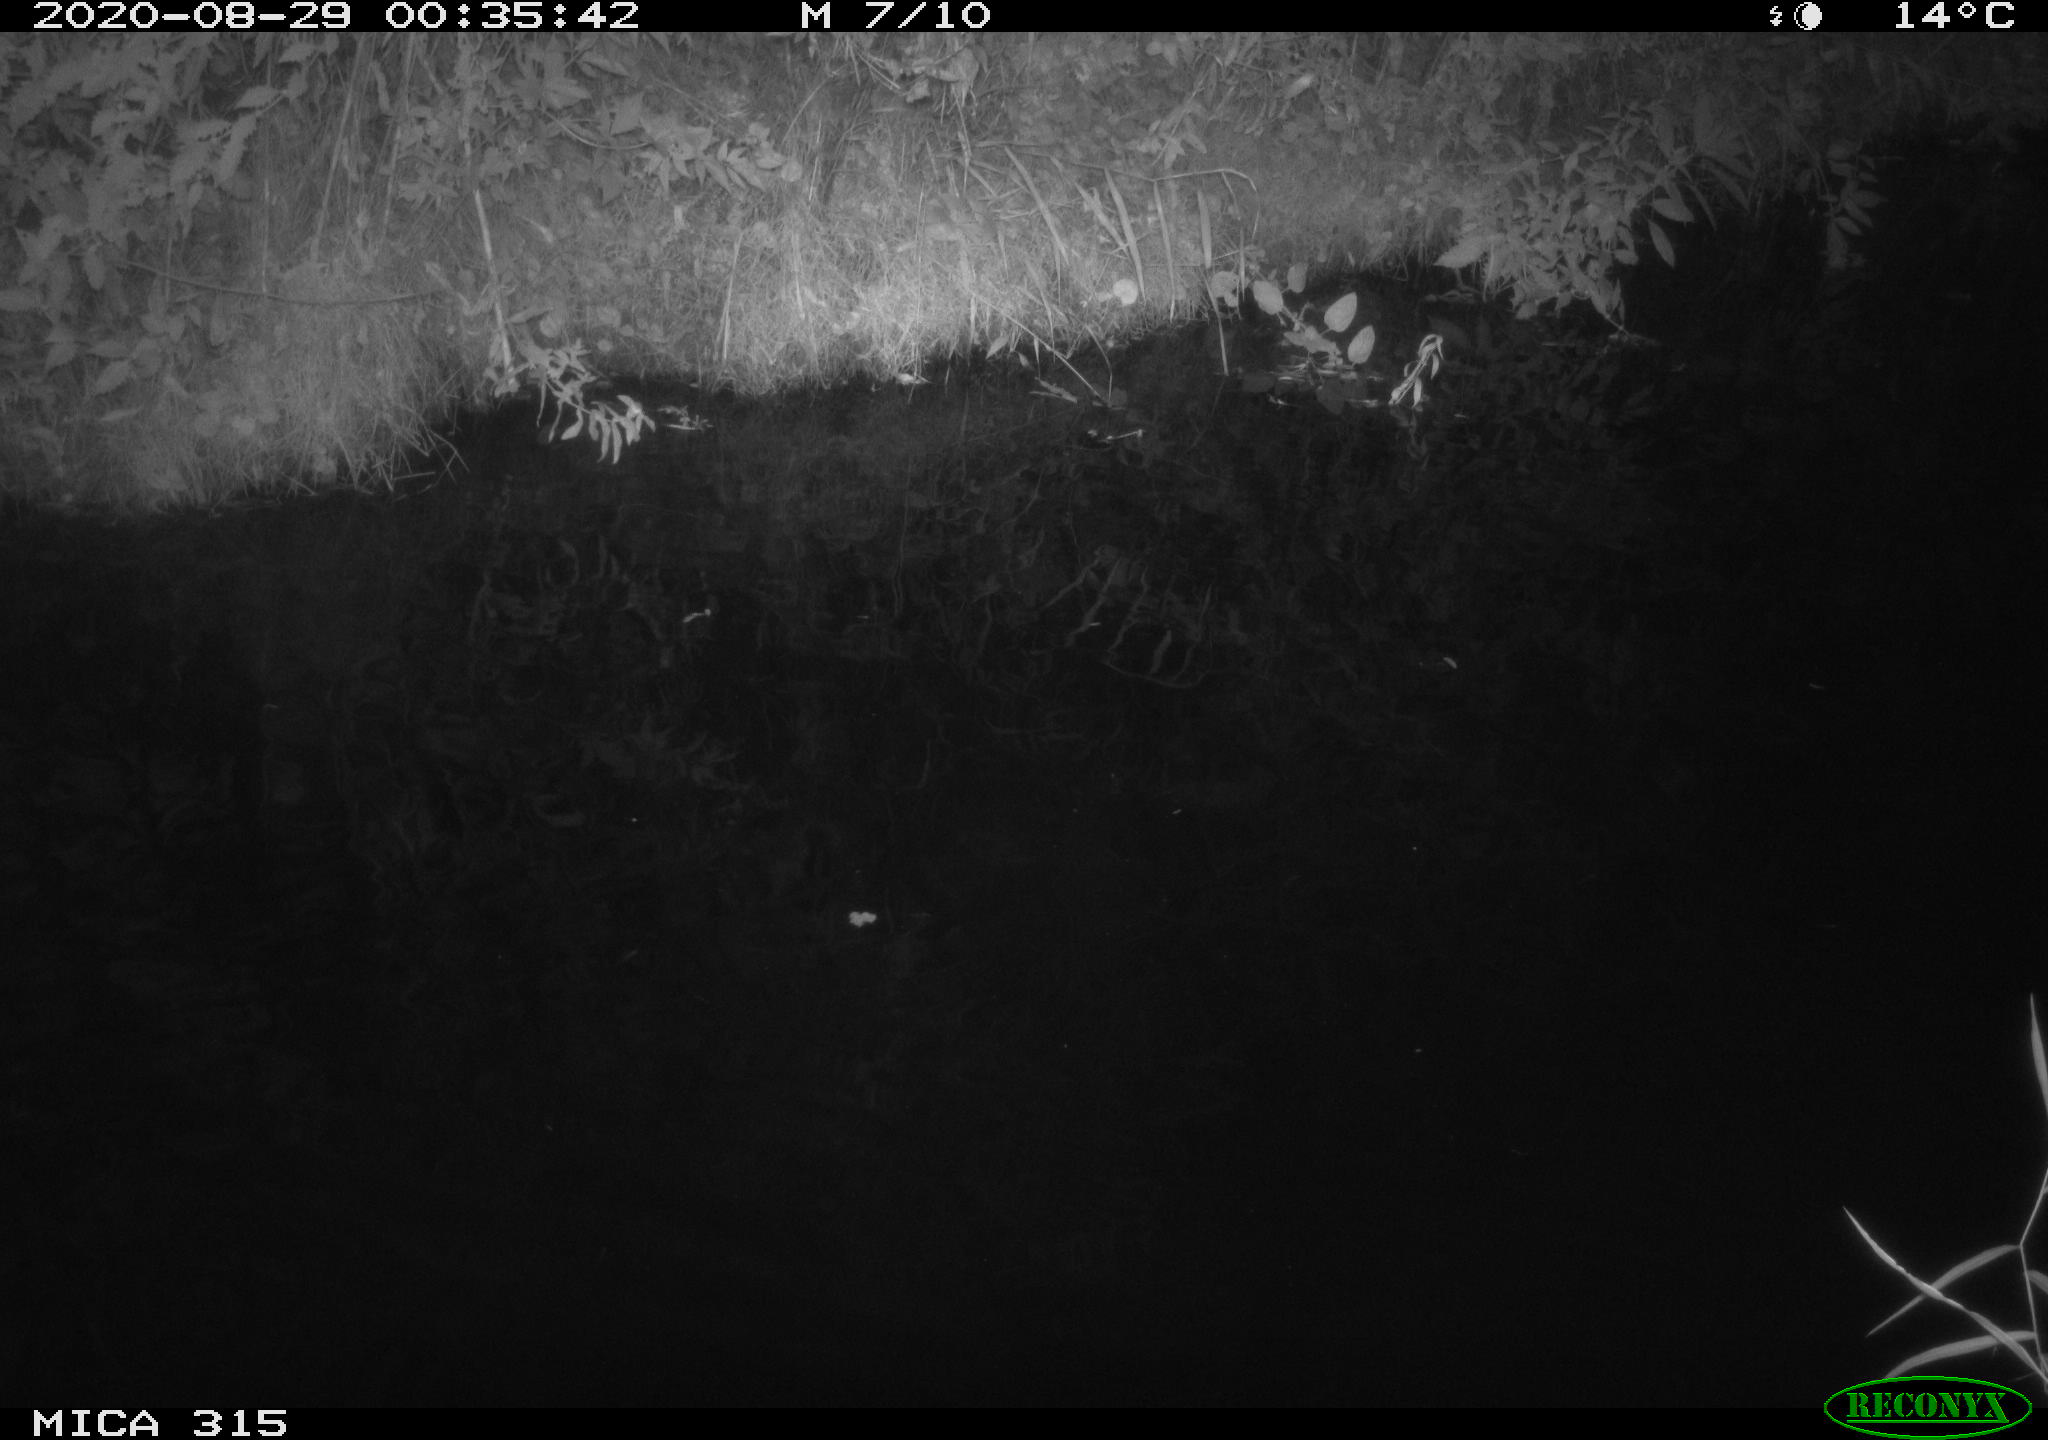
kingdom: Animalia
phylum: Chordata
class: Aves
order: Anseriformes
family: Anatidae
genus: Anas
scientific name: Anas platyrhynchos
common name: Mallard
